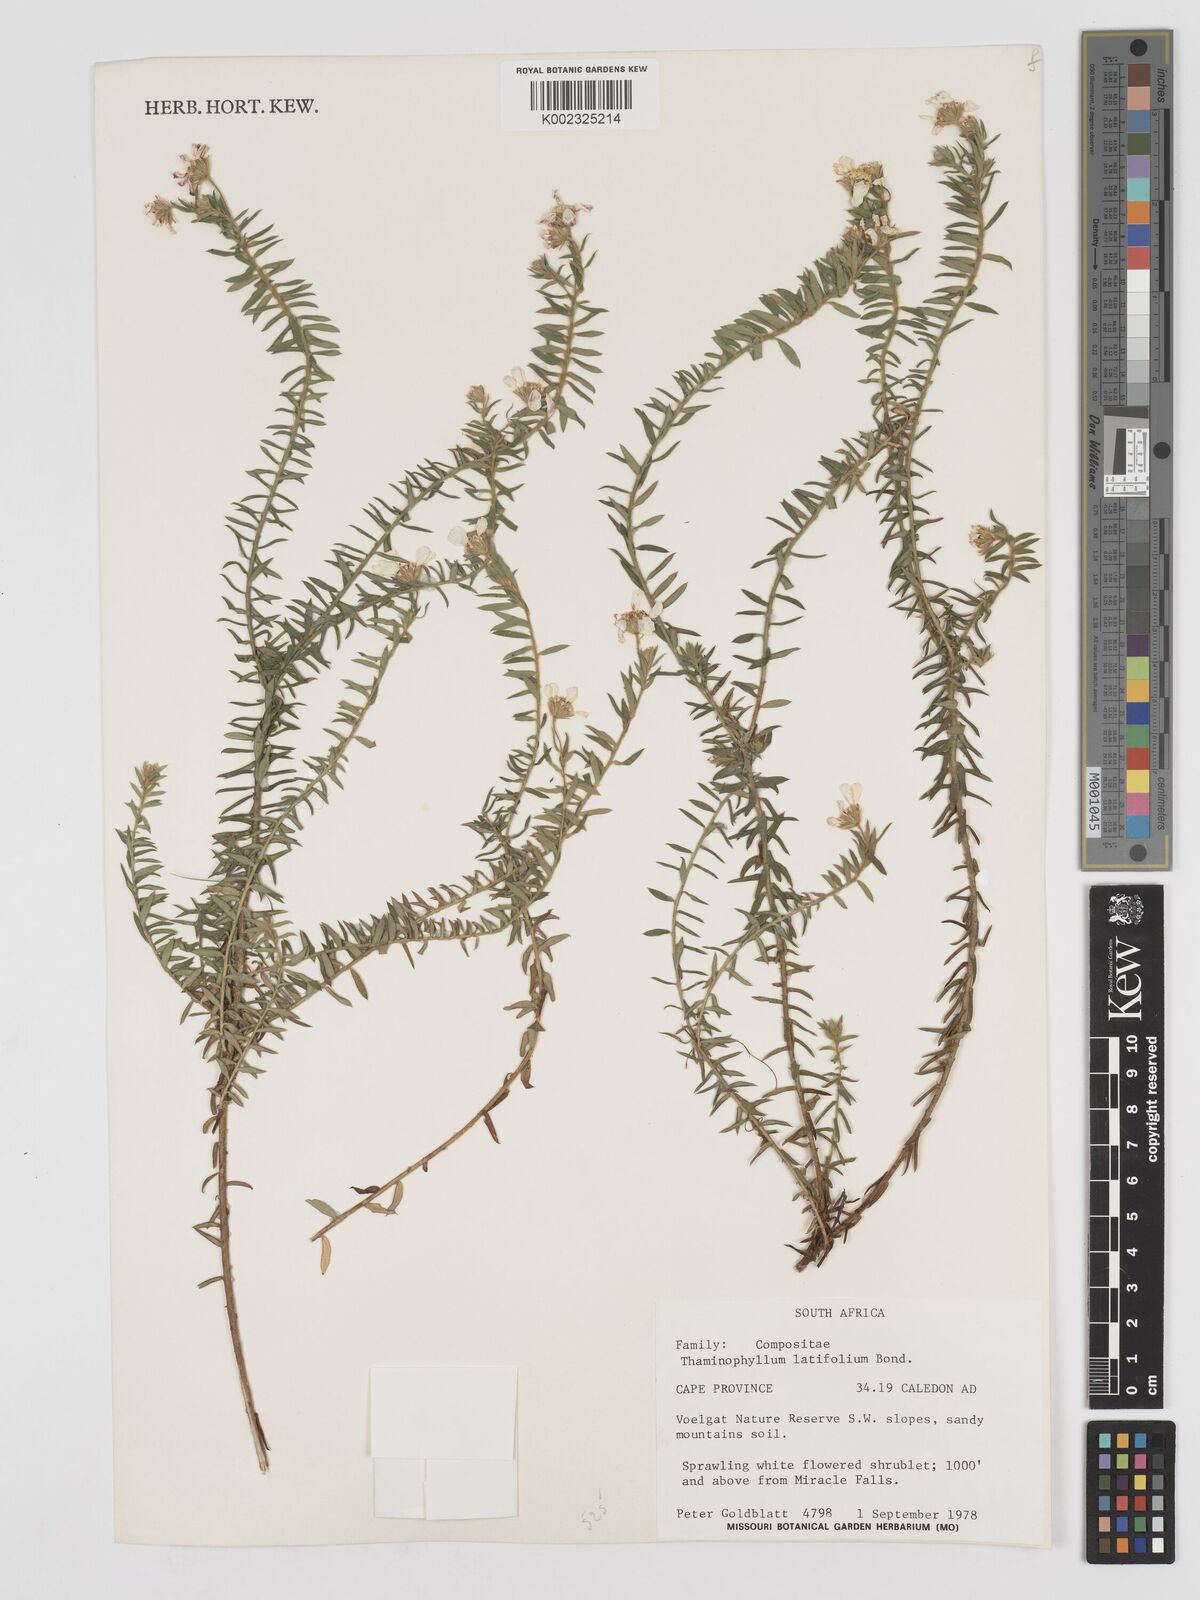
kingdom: Plantae
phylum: Tracheophyta
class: Magnoliopsida
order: Asterales
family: Asteraceae
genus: Thaminophyllum
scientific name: Thaminophyllum latifolium
